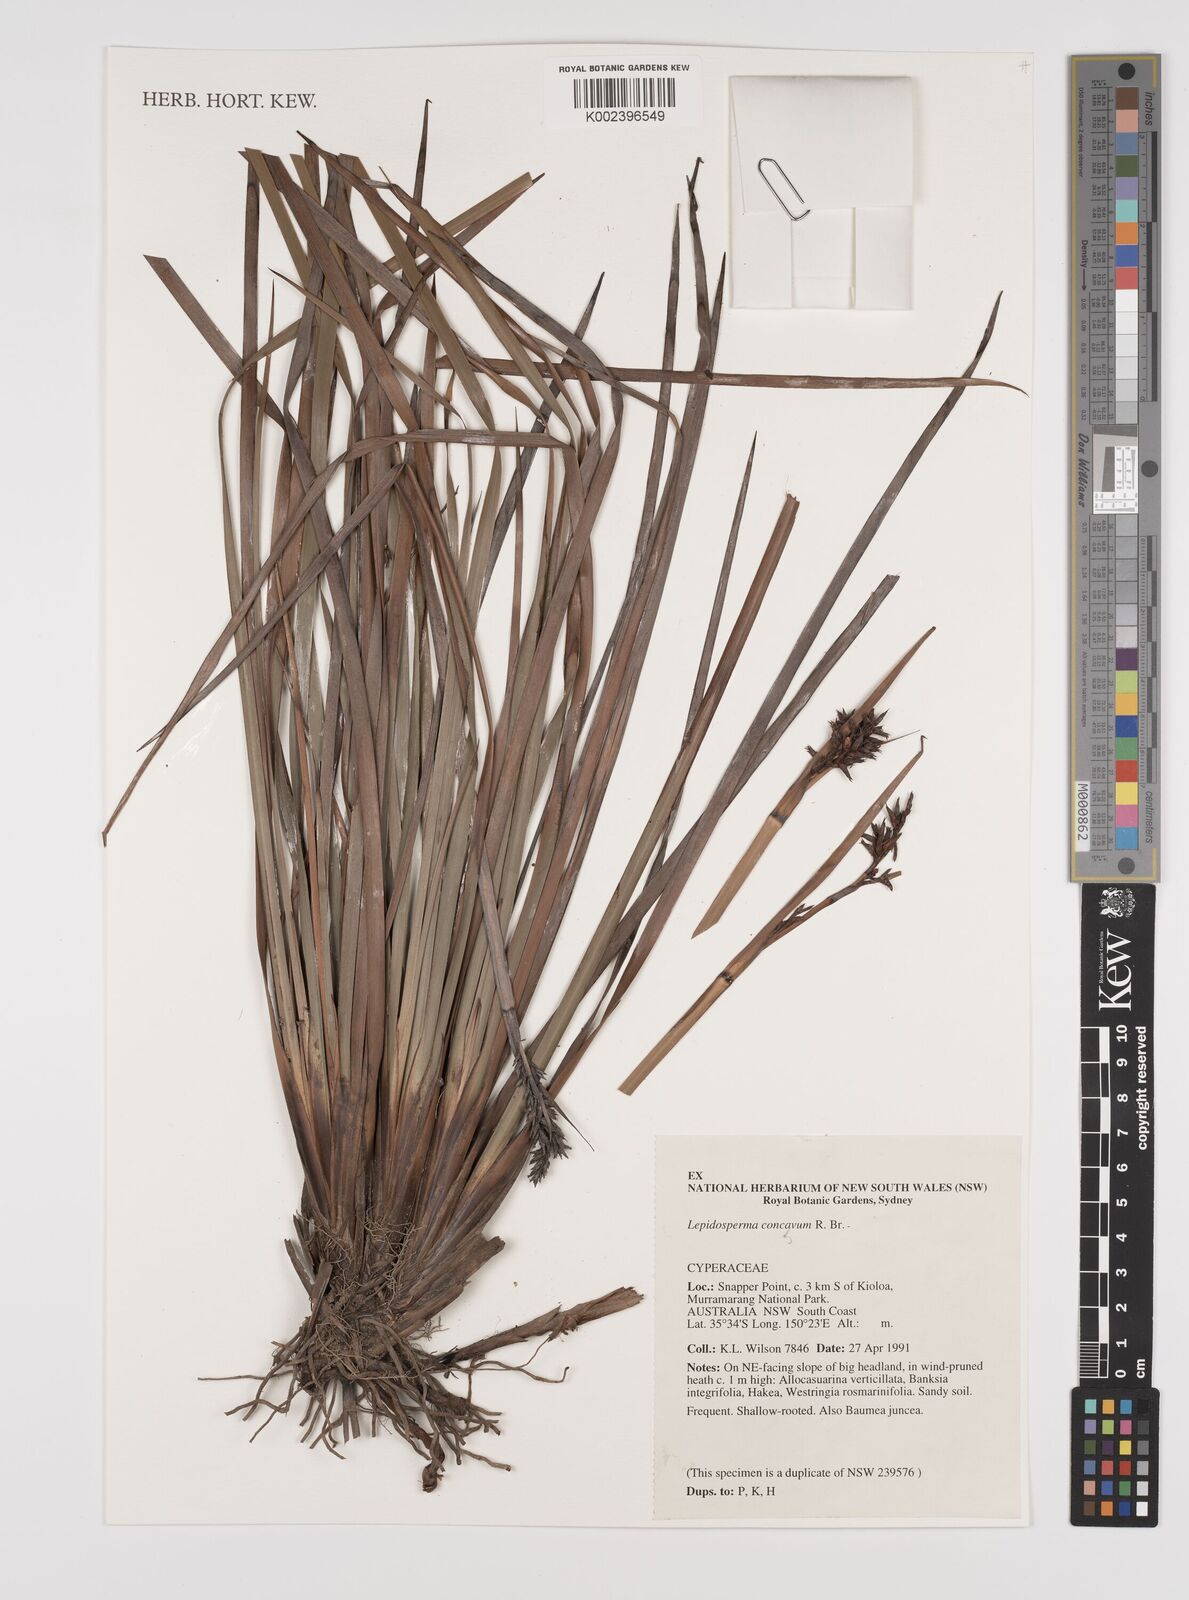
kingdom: Plantae
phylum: Tracheophyta
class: Liliopsida
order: Poales
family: Cyperaceae
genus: Lepidosperma
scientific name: Lepidosperma concavum
